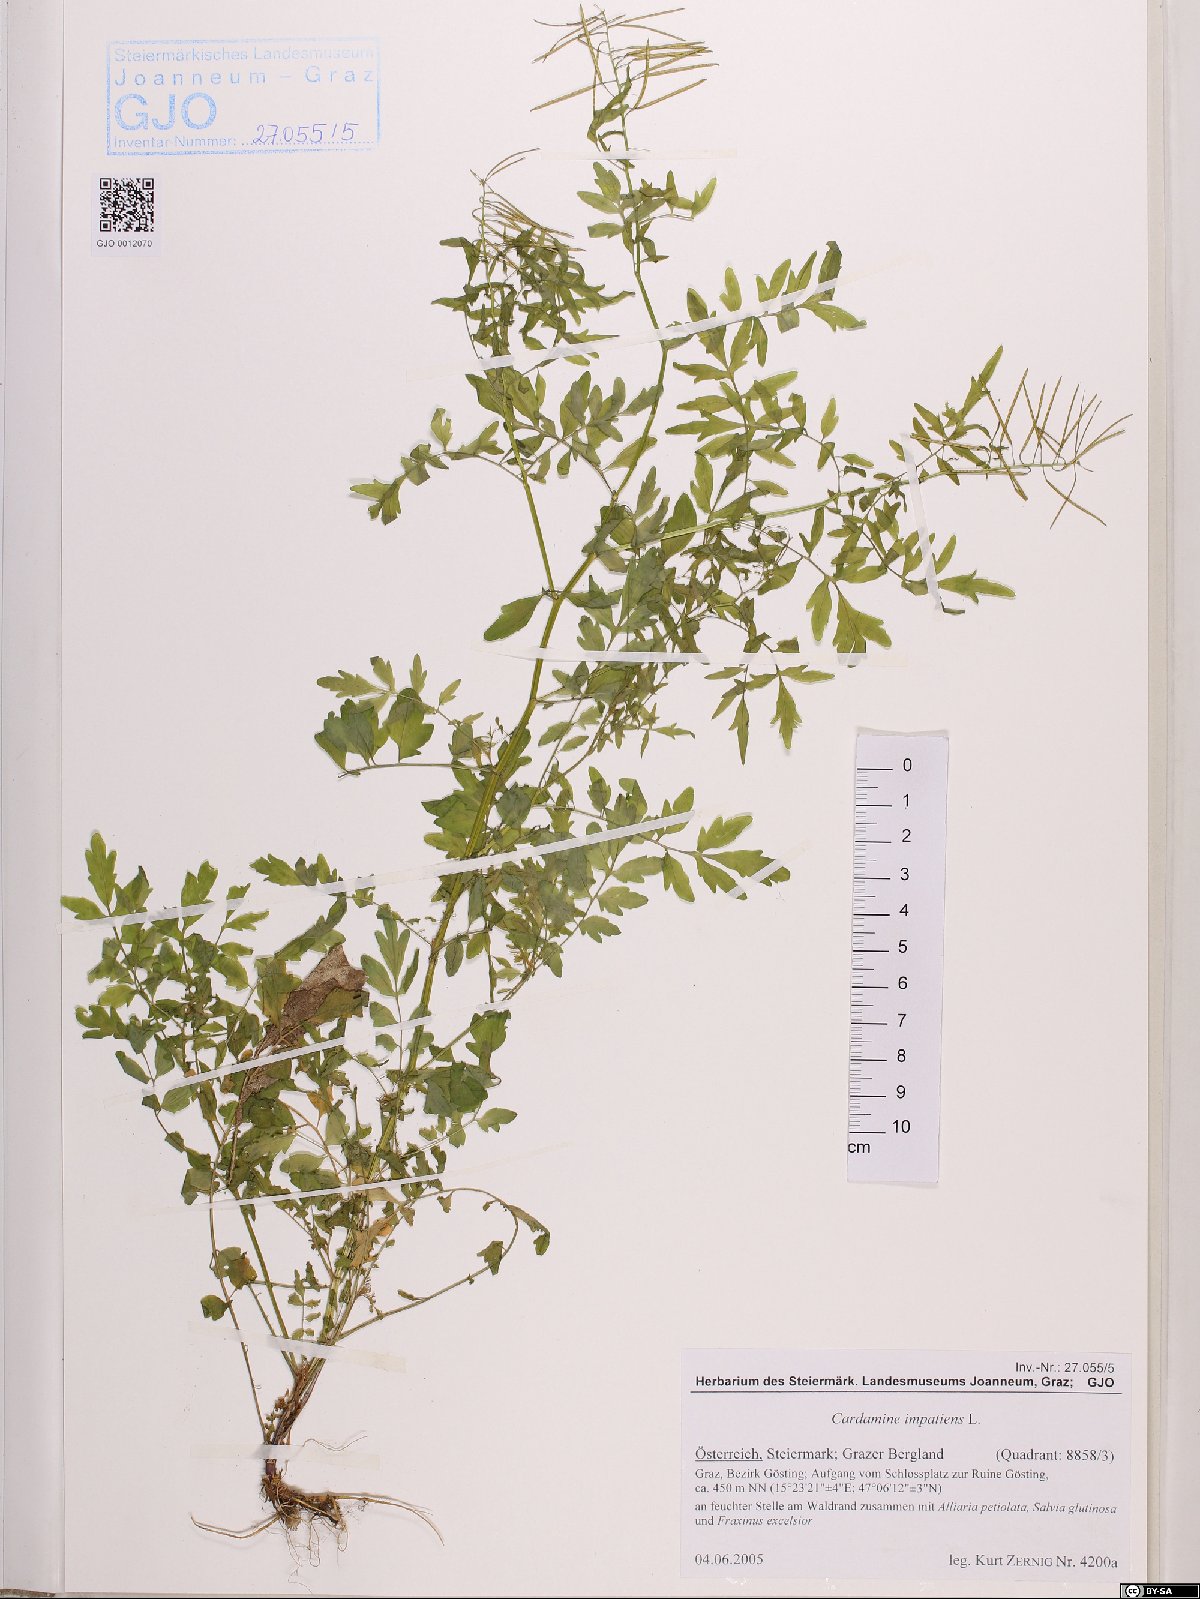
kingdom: Plantae
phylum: Tracheophyta
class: Magnoliopsida
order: Brassicales
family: Brassicaceae
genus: Cardamine
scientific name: Cardamine impatiens
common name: Narrow-leaved bitter-cress
